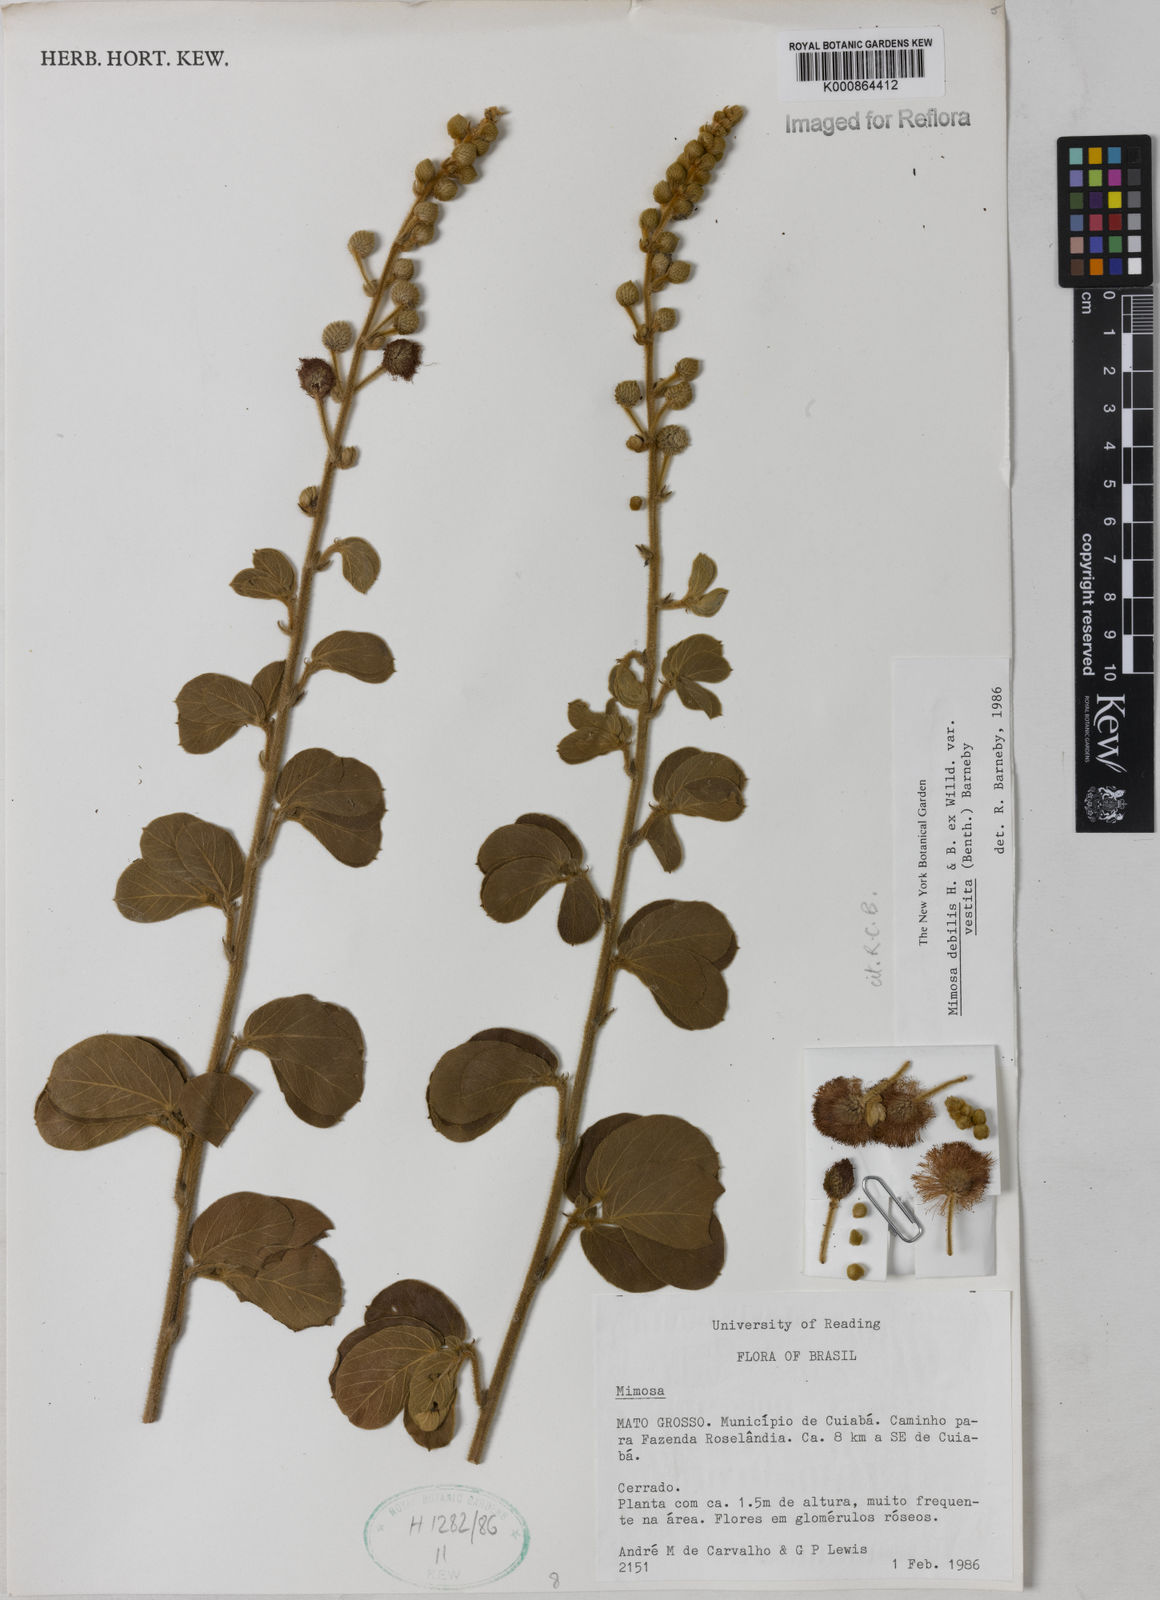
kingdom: Plantae
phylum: Tracheophyta
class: Magnoliopsida
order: Fabales
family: Fabaceae
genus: Mimosa
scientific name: Mimosa debilis
